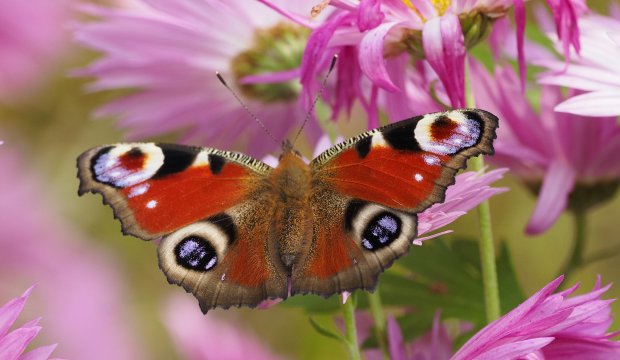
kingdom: Animalia
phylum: Arthropoda
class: Insecta
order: Lepidoptera
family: Nymphalidae
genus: Aglais
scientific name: Aglais io
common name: European Peacock
